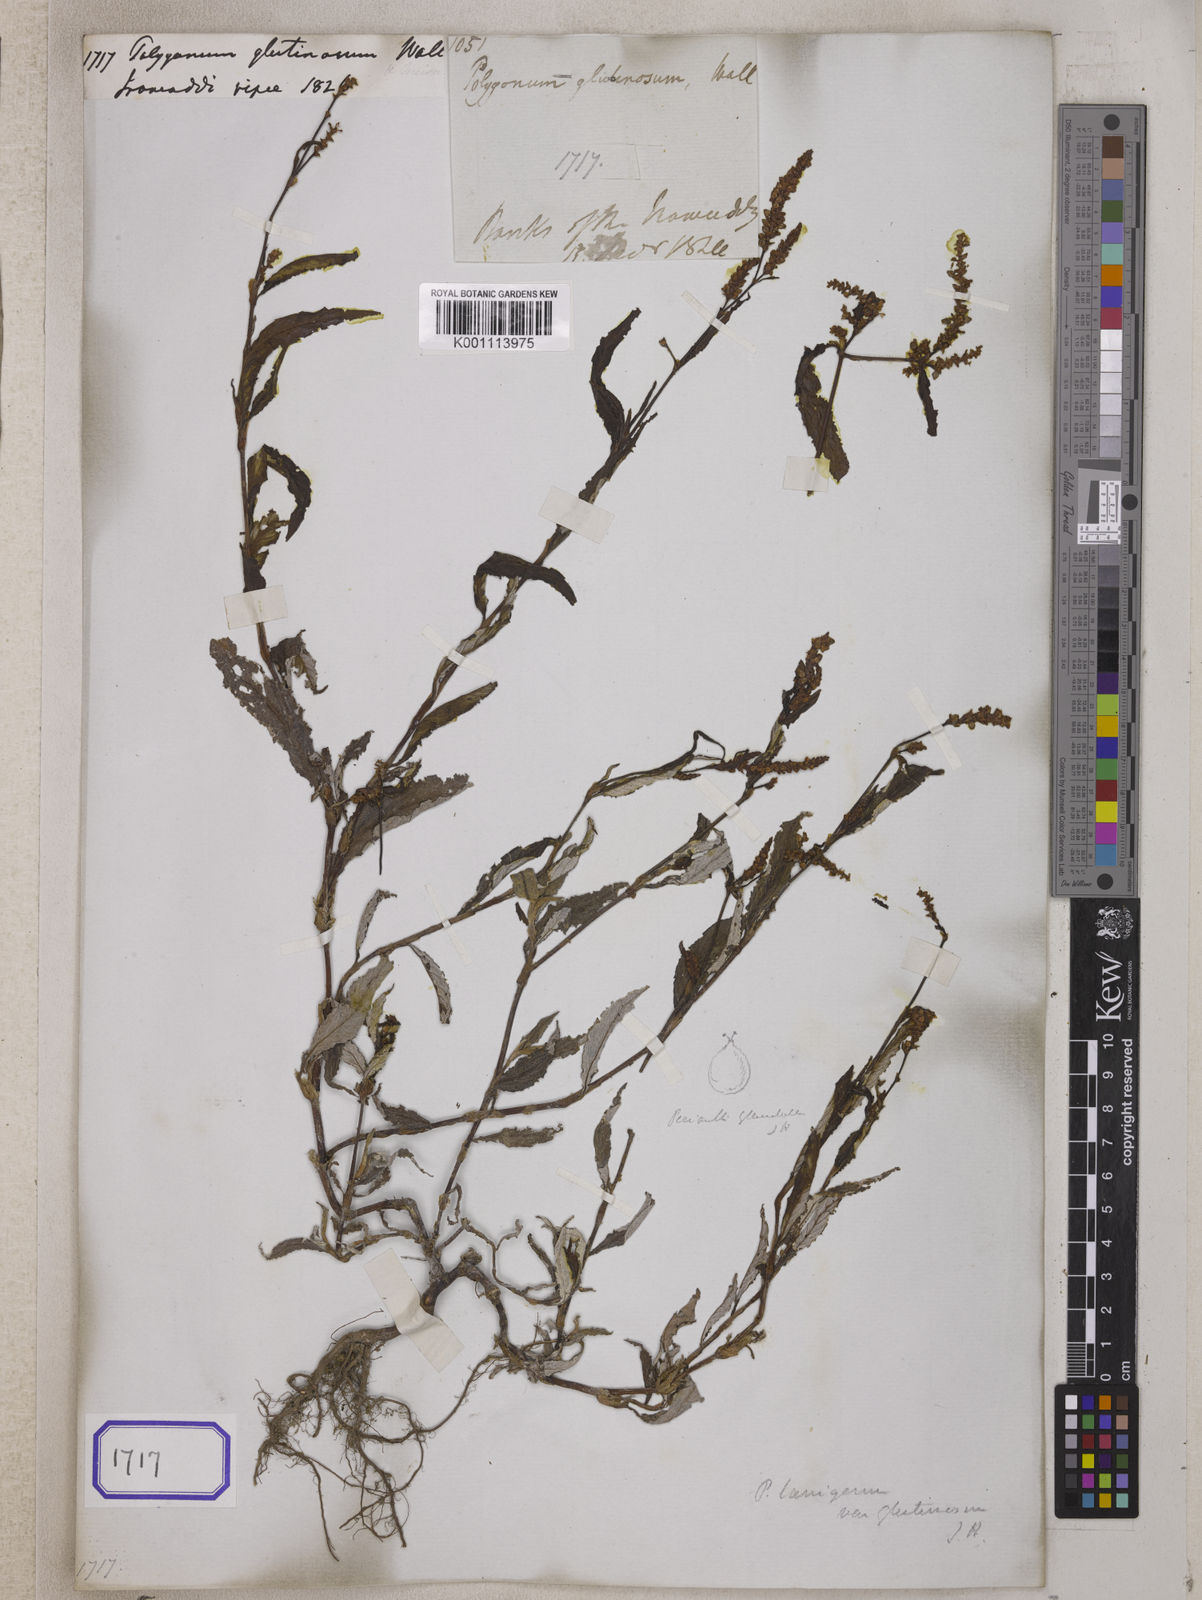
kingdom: Plantae
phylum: Tracheophyta
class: Magnoliopsida
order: Caryophyllales
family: Polygonaceae
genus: Polygonum
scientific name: Polygonum
